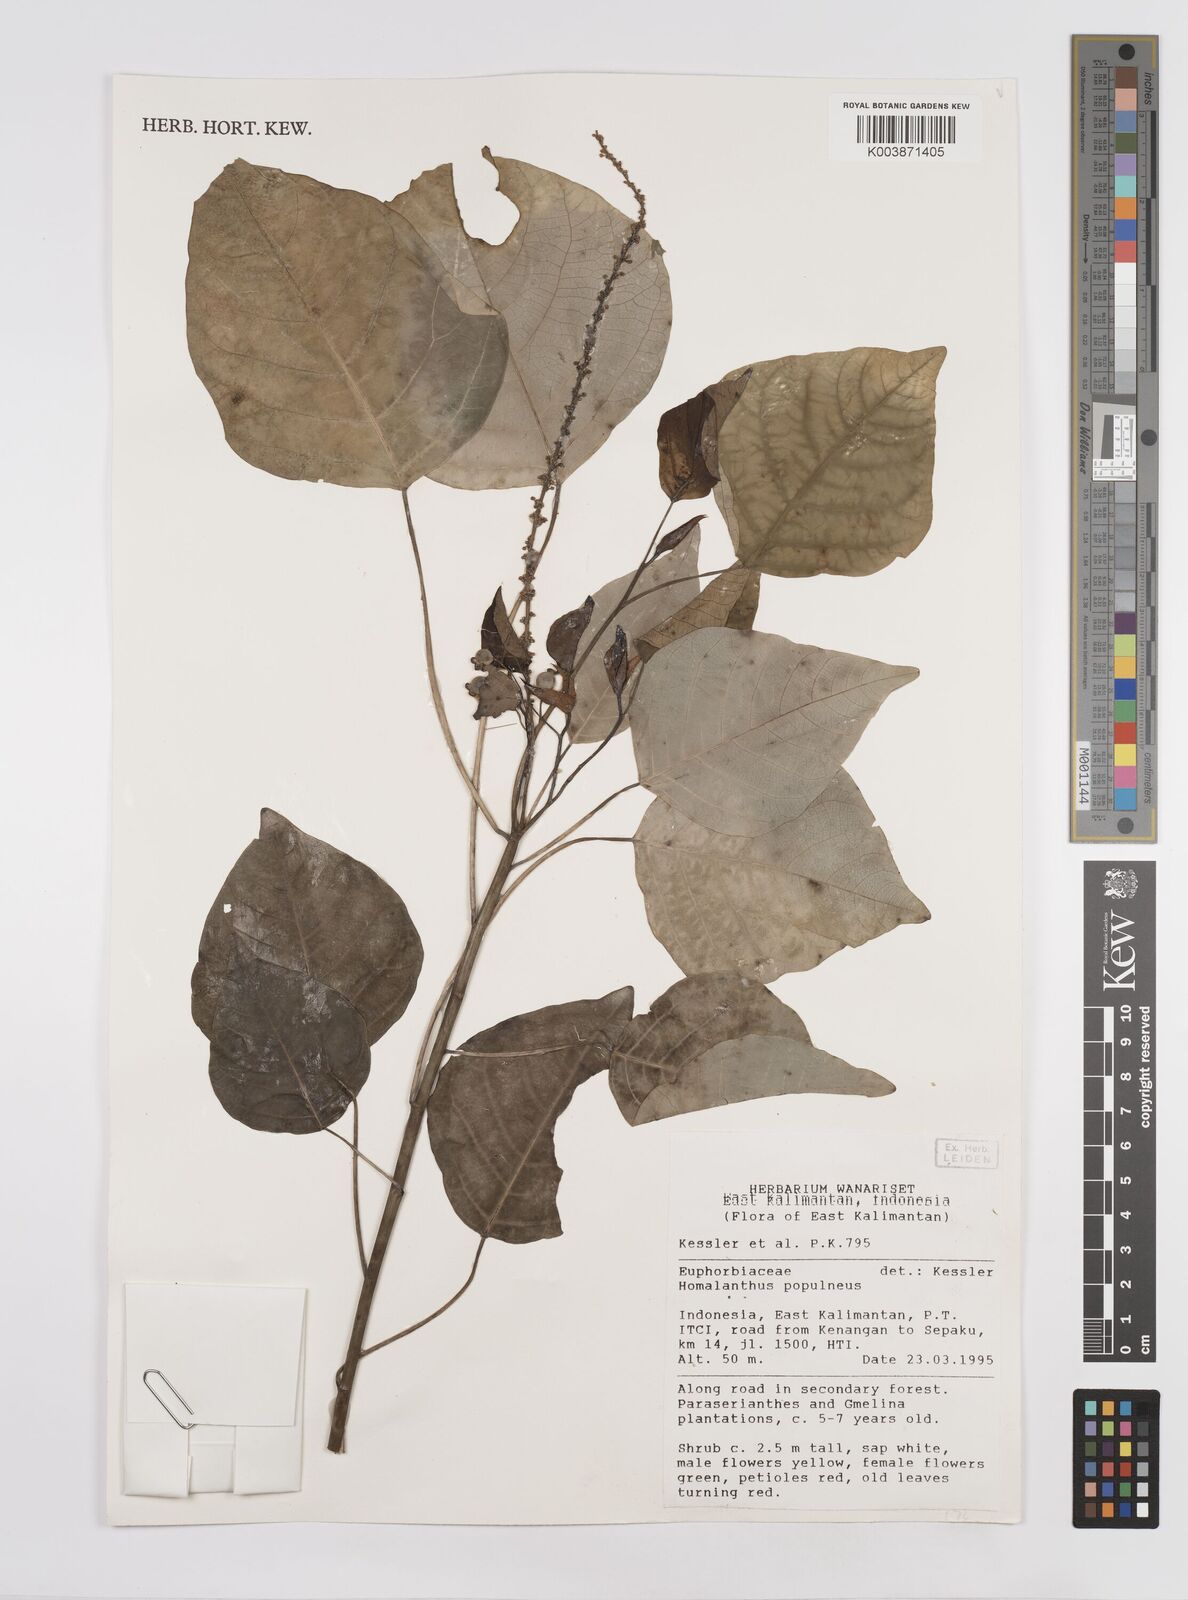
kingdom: Plantae
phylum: Tracheophyta
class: Magnoliopsida
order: Malpighiales
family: Euphorbiaceae
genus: Homalanthus
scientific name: Homalanthus populneus
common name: Spurge
